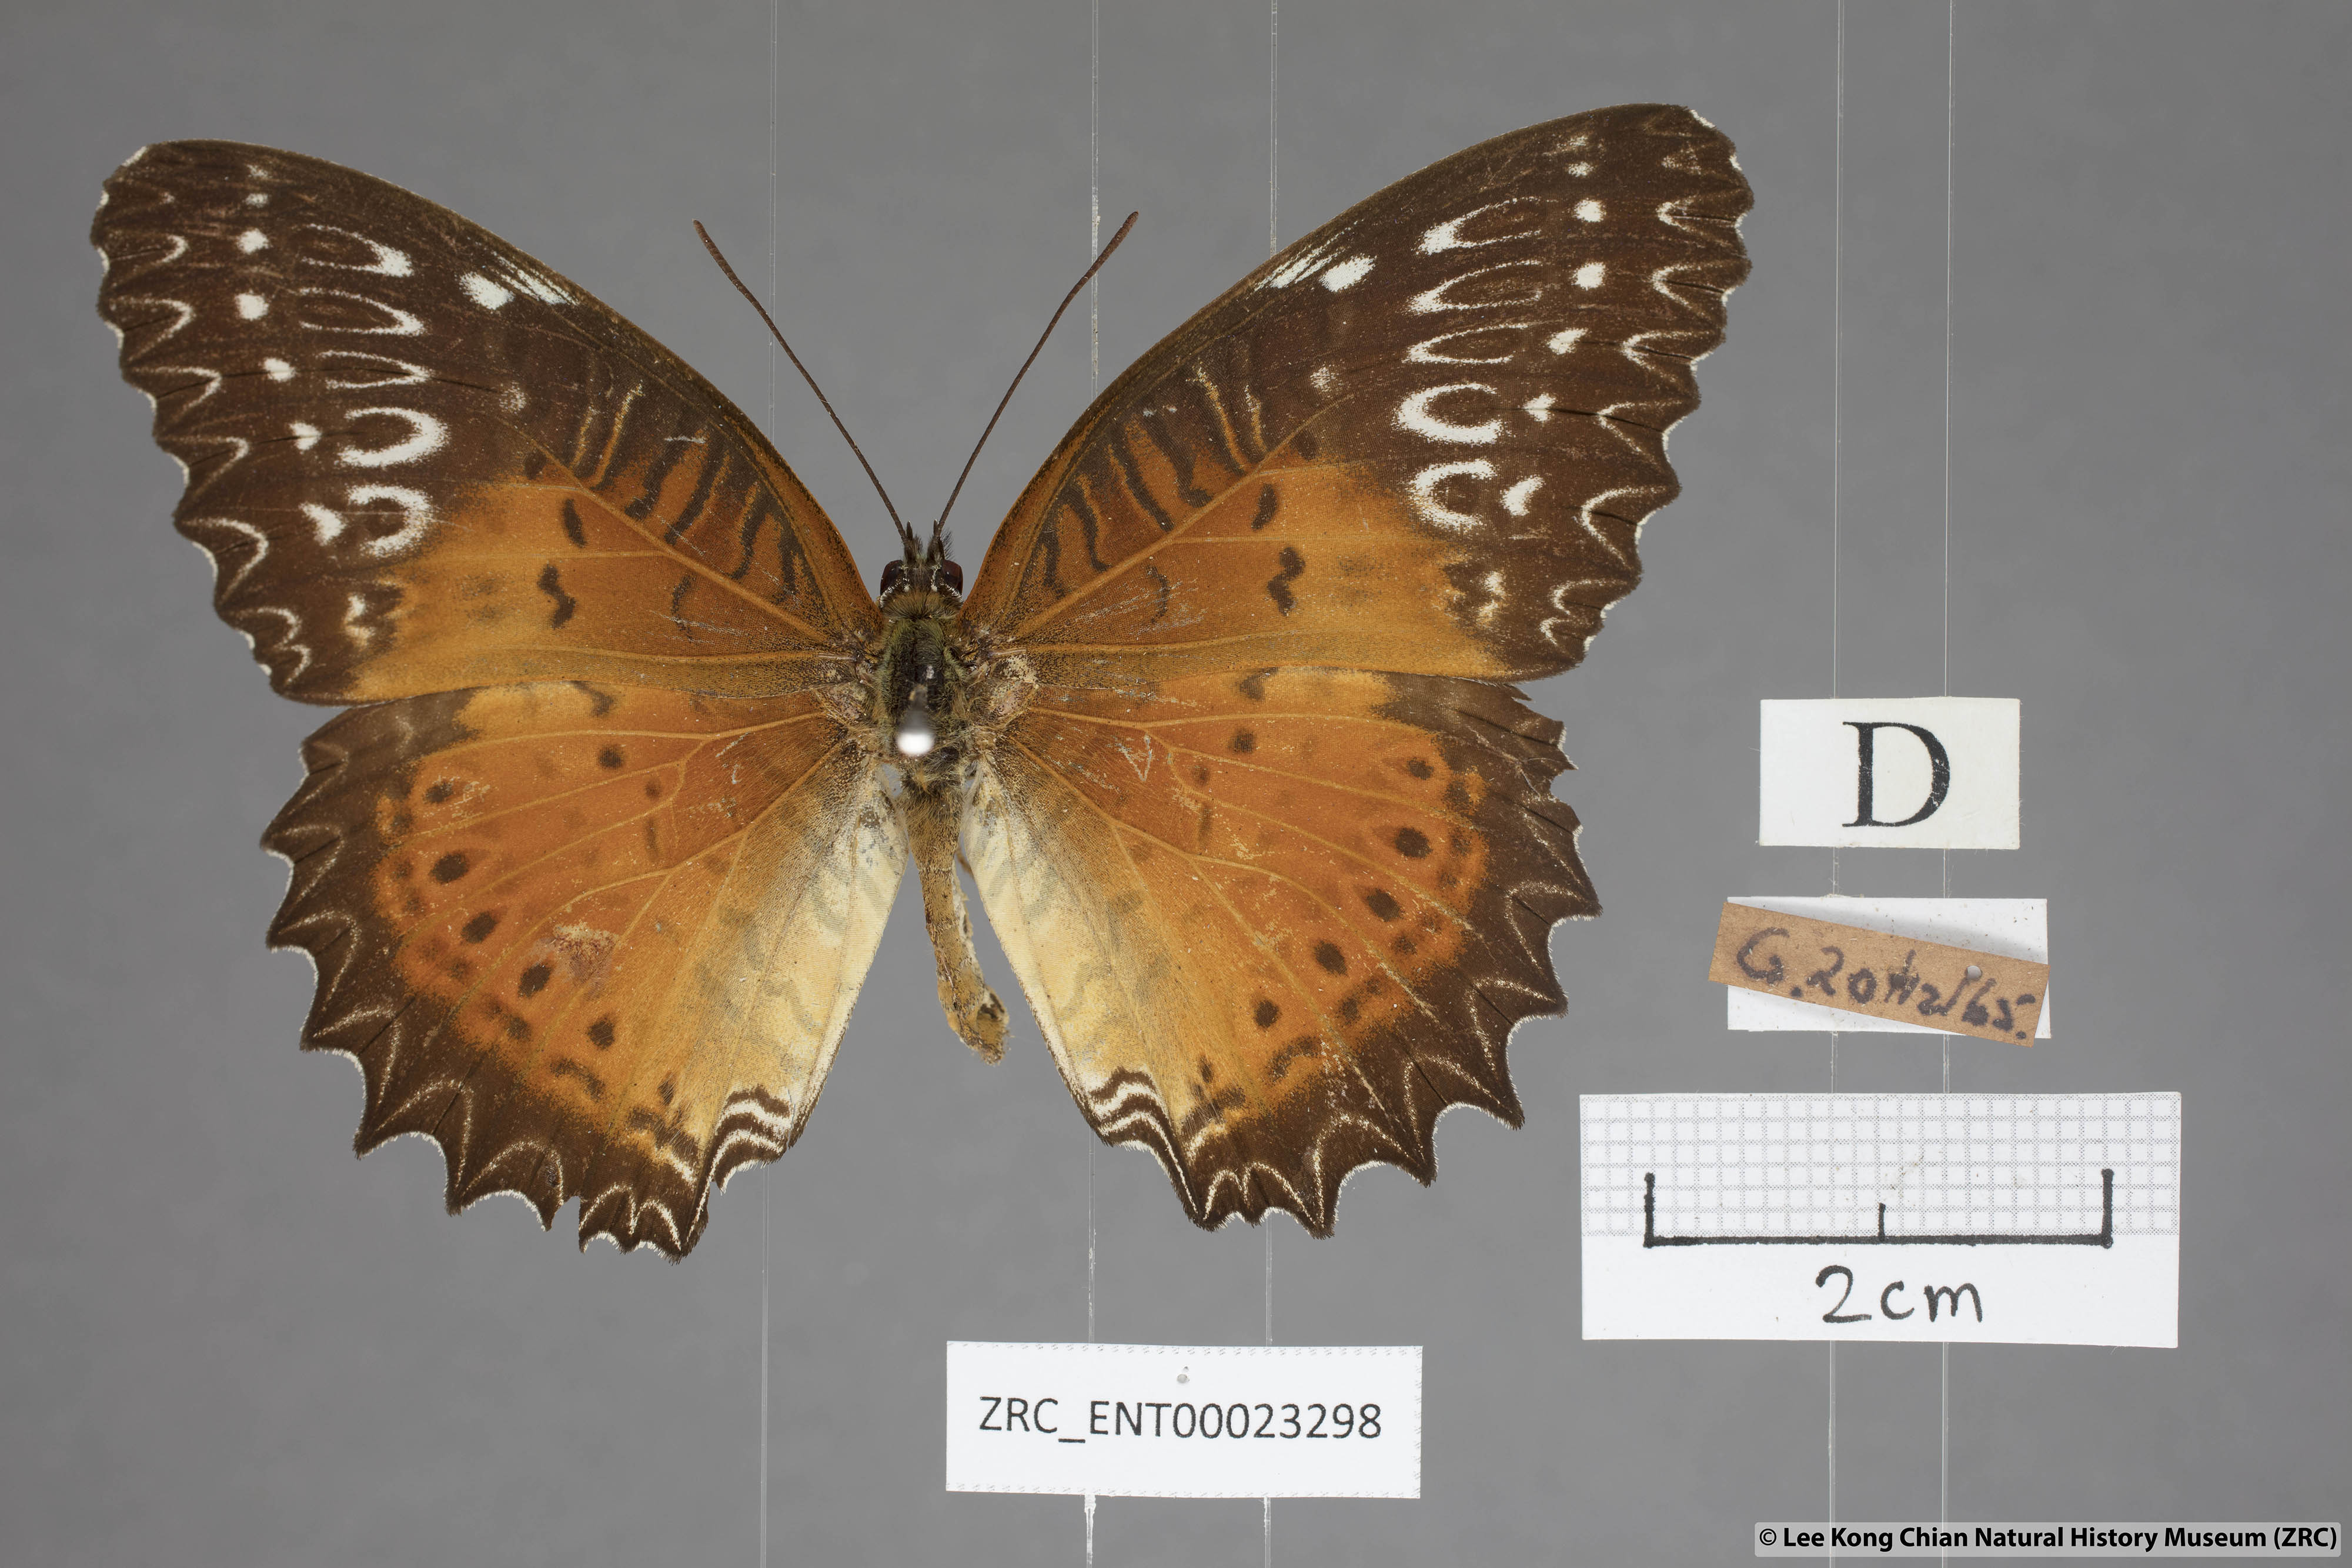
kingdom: Animalia
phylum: Arthropoda
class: Insecta
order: Lepidoptera
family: Nymphalidae
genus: Cethosia
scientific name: Cethosia biblis
